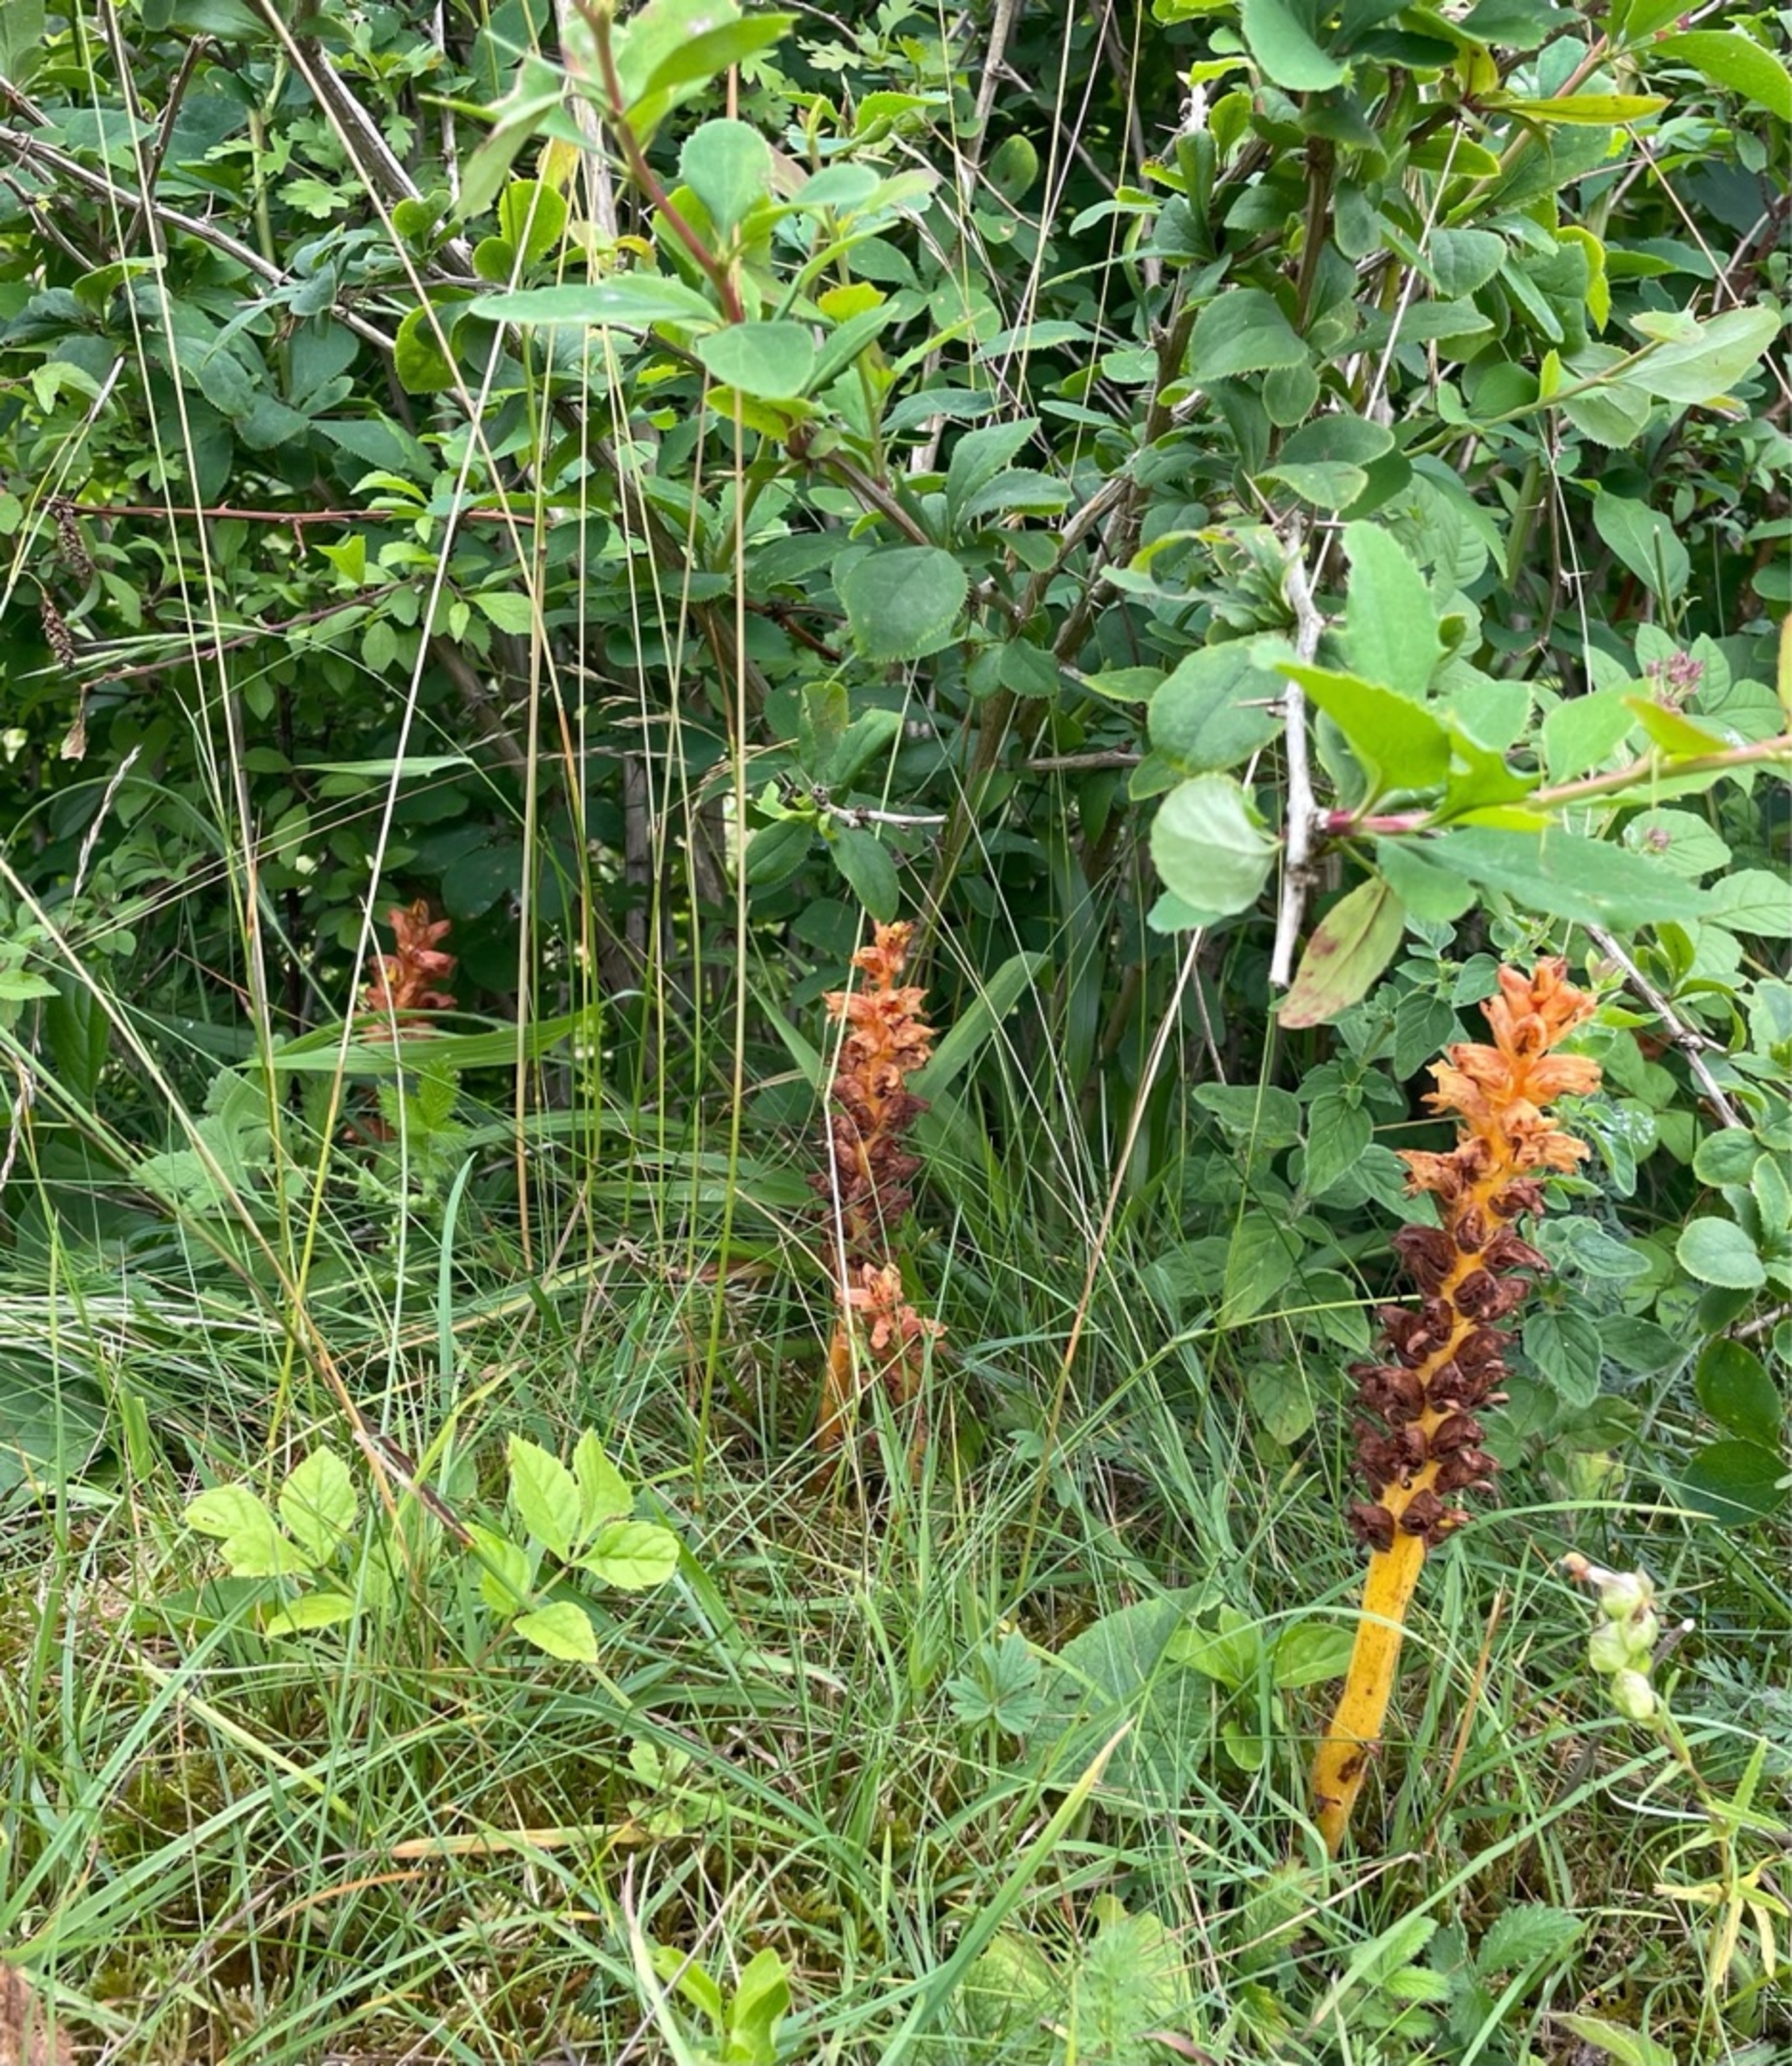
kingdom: Plantae
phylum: Tracheophyta
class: Magnoliopsida
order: Lamiales
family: Orobanchaceae
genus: Orobanche
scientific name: Orobanche lucorum
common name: Berberis-gyvelkvæler
